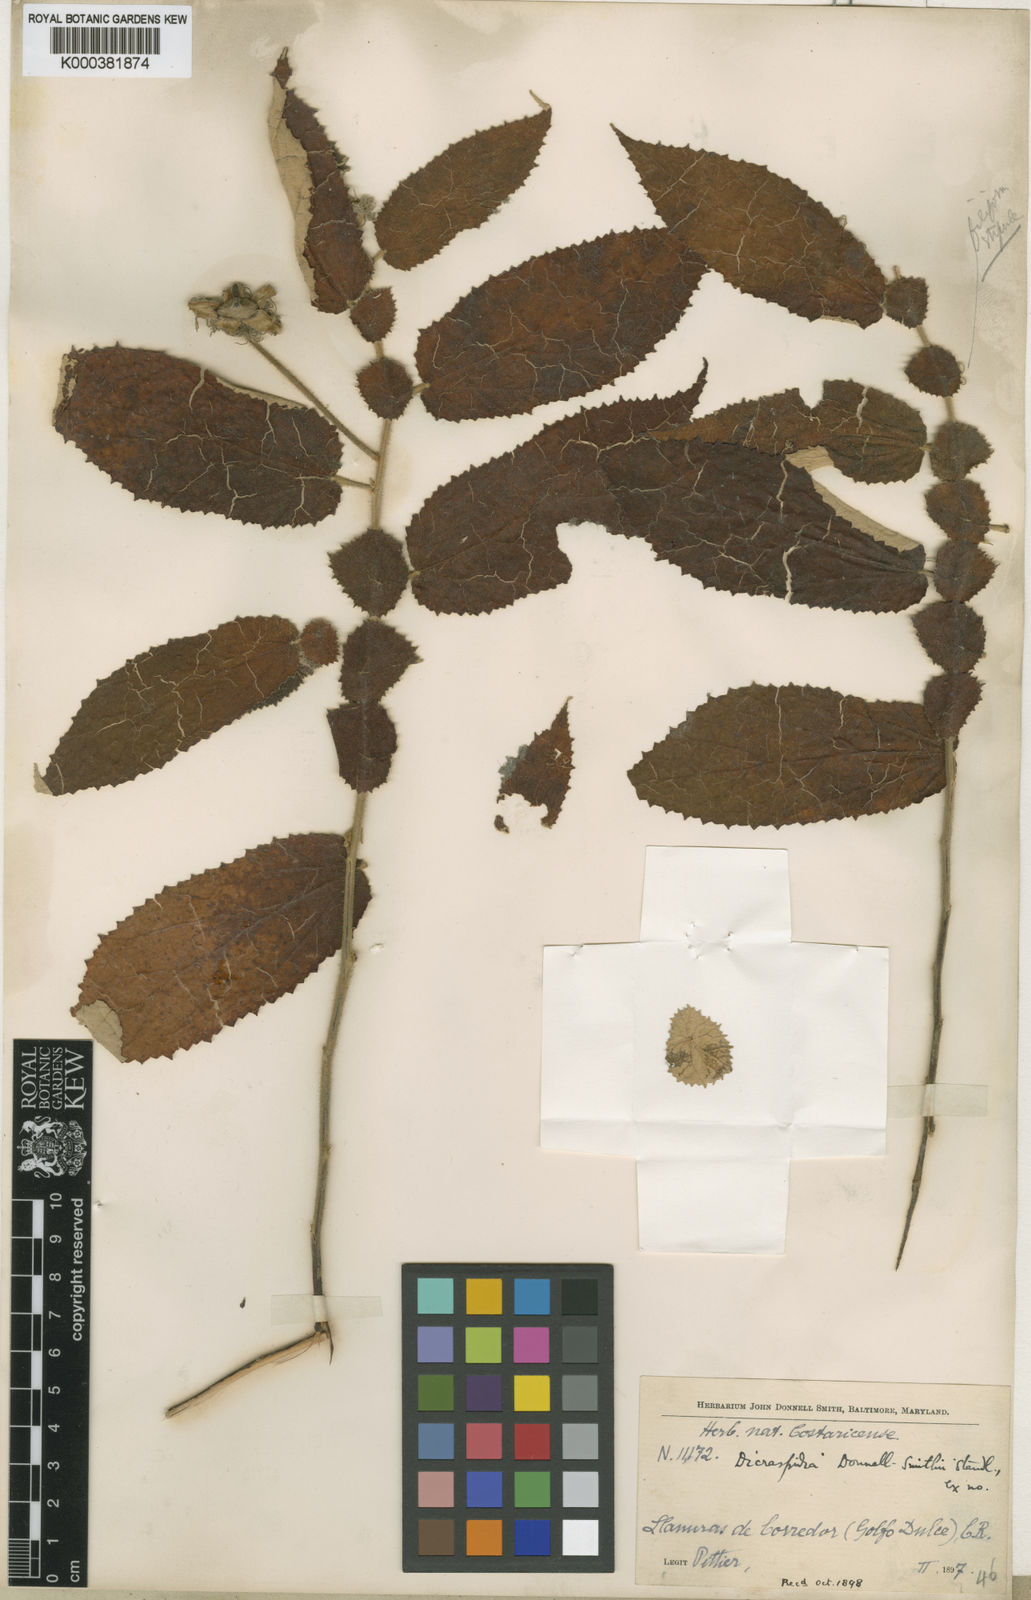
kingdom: Plantae
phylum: Tracheophyta
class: Magnoliopsida
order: Malvales
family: Muntingiaceae
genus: Dicraspidia
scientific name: Dicraspidia donnell-smithii
